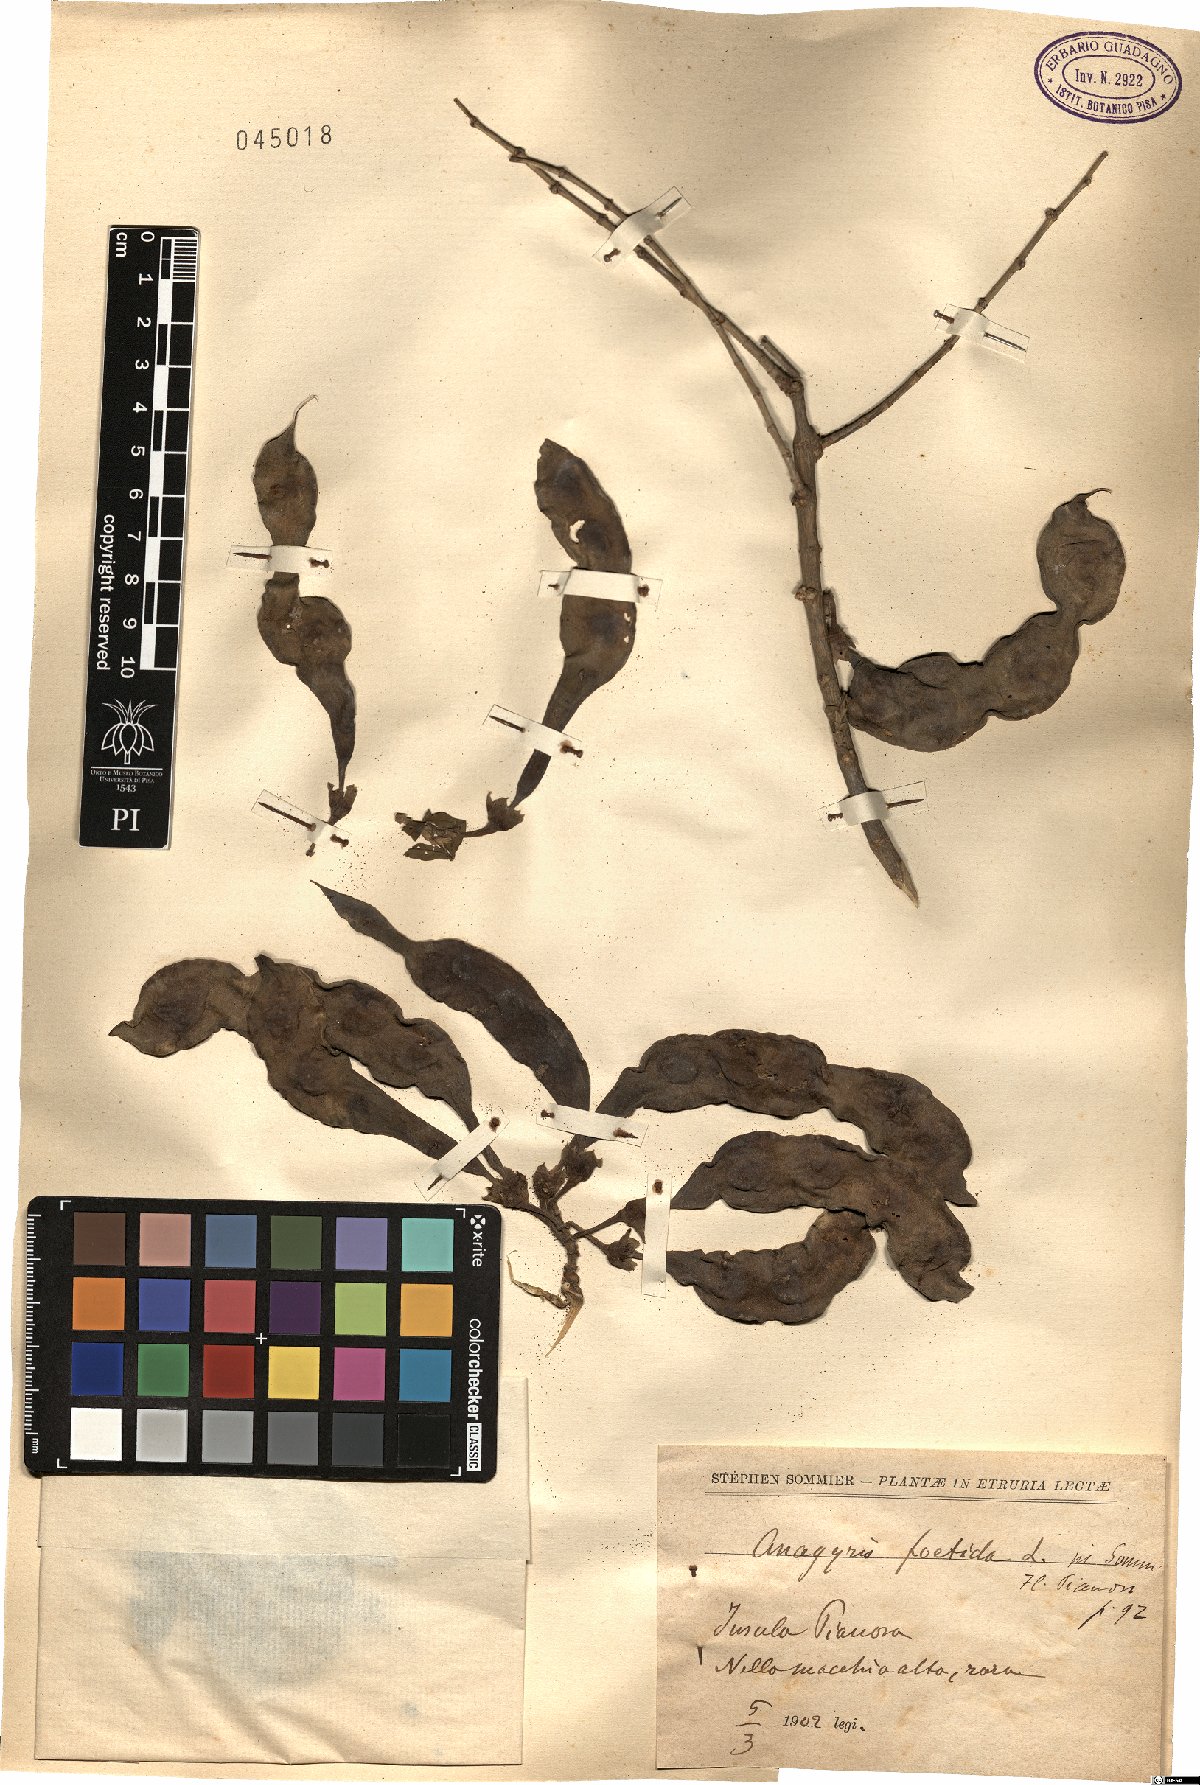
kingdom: Plantae
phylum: Tracheophyta
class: Magnoliopsida
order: Fabales
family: Fabaceae
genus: Anagyris
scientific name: Anagyris foetida
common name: Stinking bean trefoil
